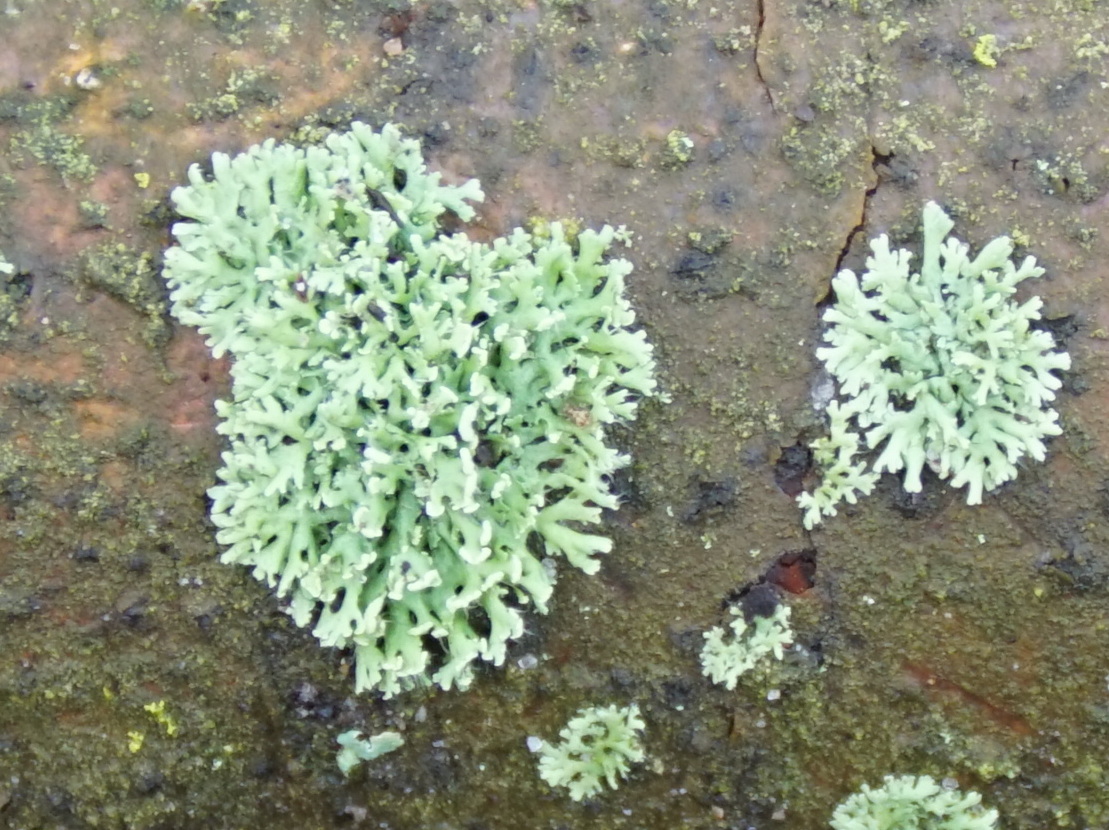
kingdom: Fungi
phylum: Ascomycota
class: Lecanoromycetes
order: Caliciales
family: Physciaceae
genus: Physcia
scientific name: Physcia tenella
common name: spæd rosetlav
